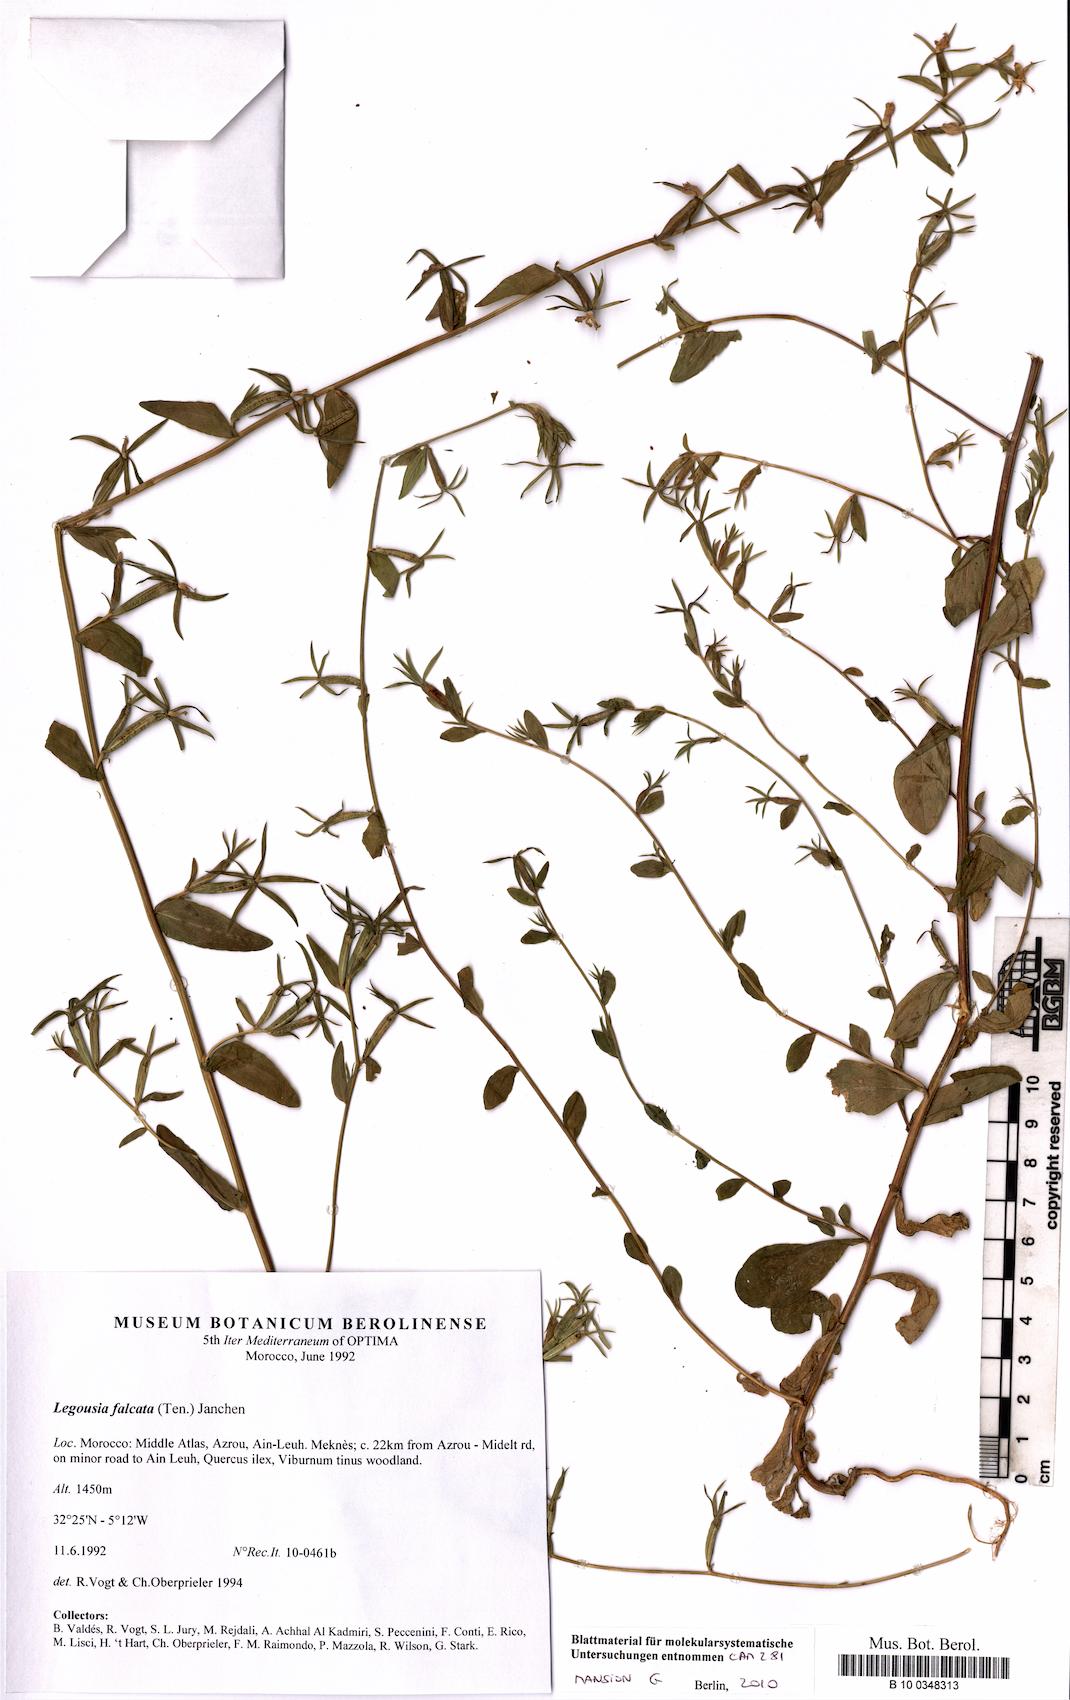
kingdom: Plantae
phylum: Tracheophyta
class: Magnoliopsida
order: Asterales
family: Campanulaceae
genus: Legousia
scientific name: Legousia falcata
